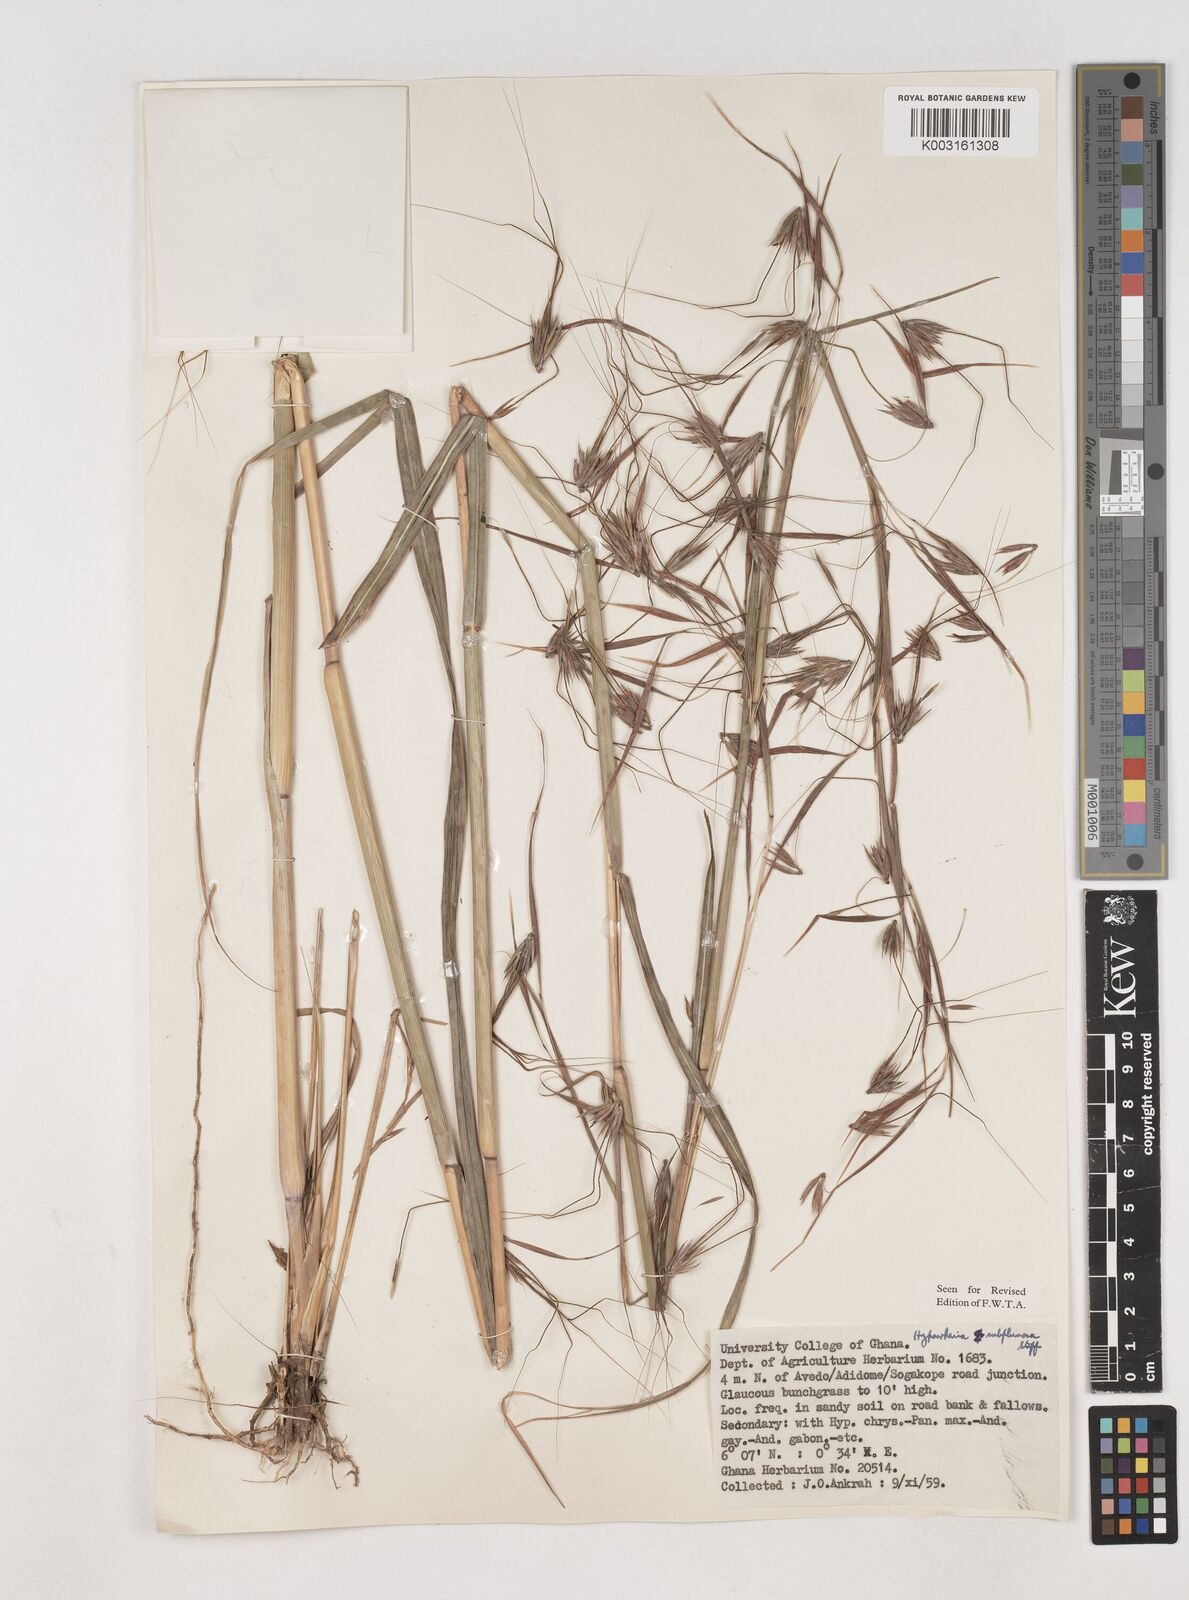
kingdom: Plantae
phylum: Tracheophyta
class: Liliopsida
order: Poales
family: Poaceae
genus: Hyparrhenia
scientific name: Hyparrhenia subplumosa
